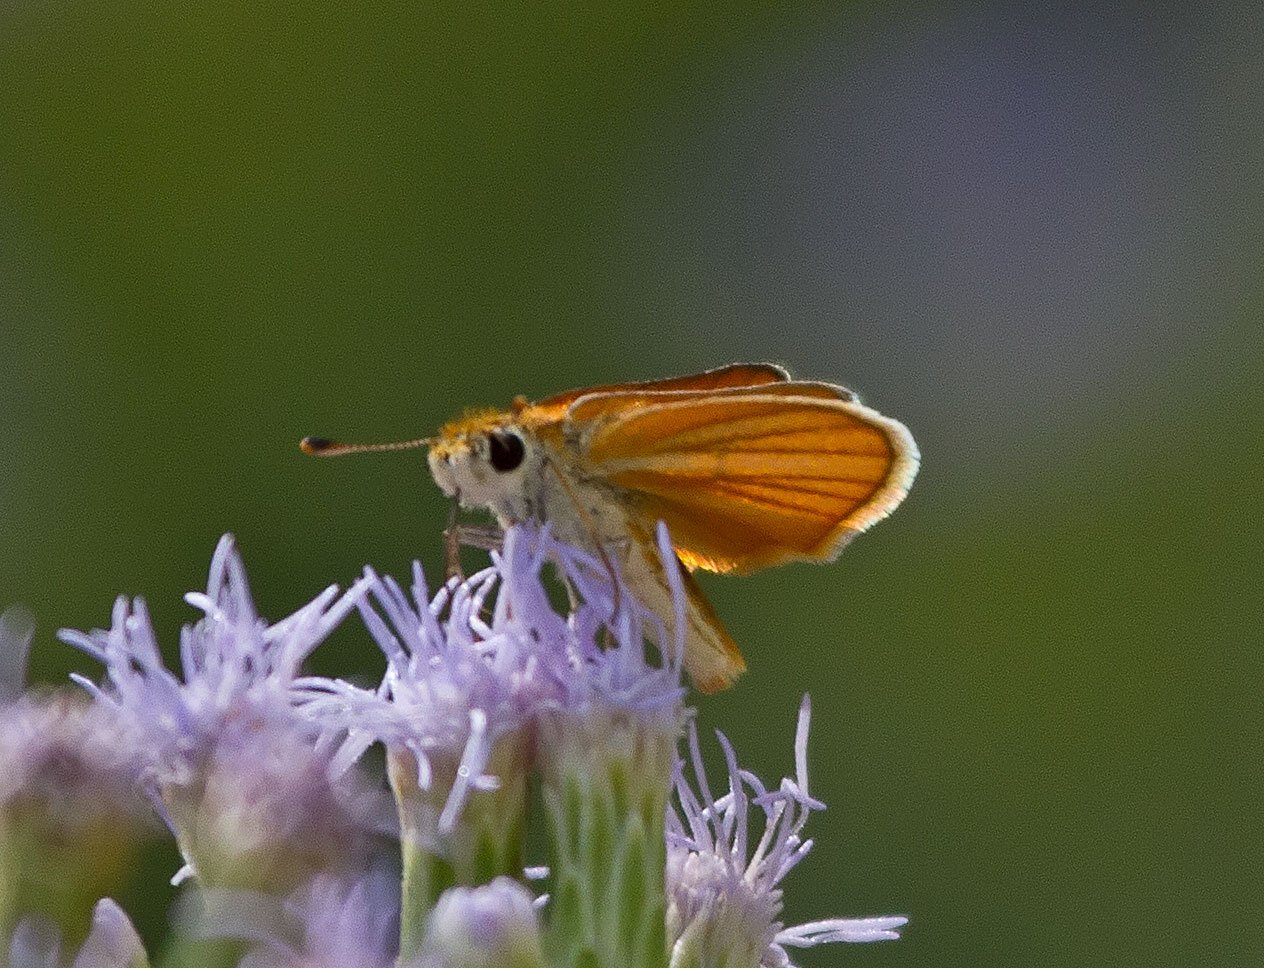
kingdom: Animalia
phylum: Arthropoda
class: Insecta
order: Lepidoptera
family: Hesperiidae
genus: Copaeodes
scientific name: Copaeodes minima
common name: Southern Skipperling
